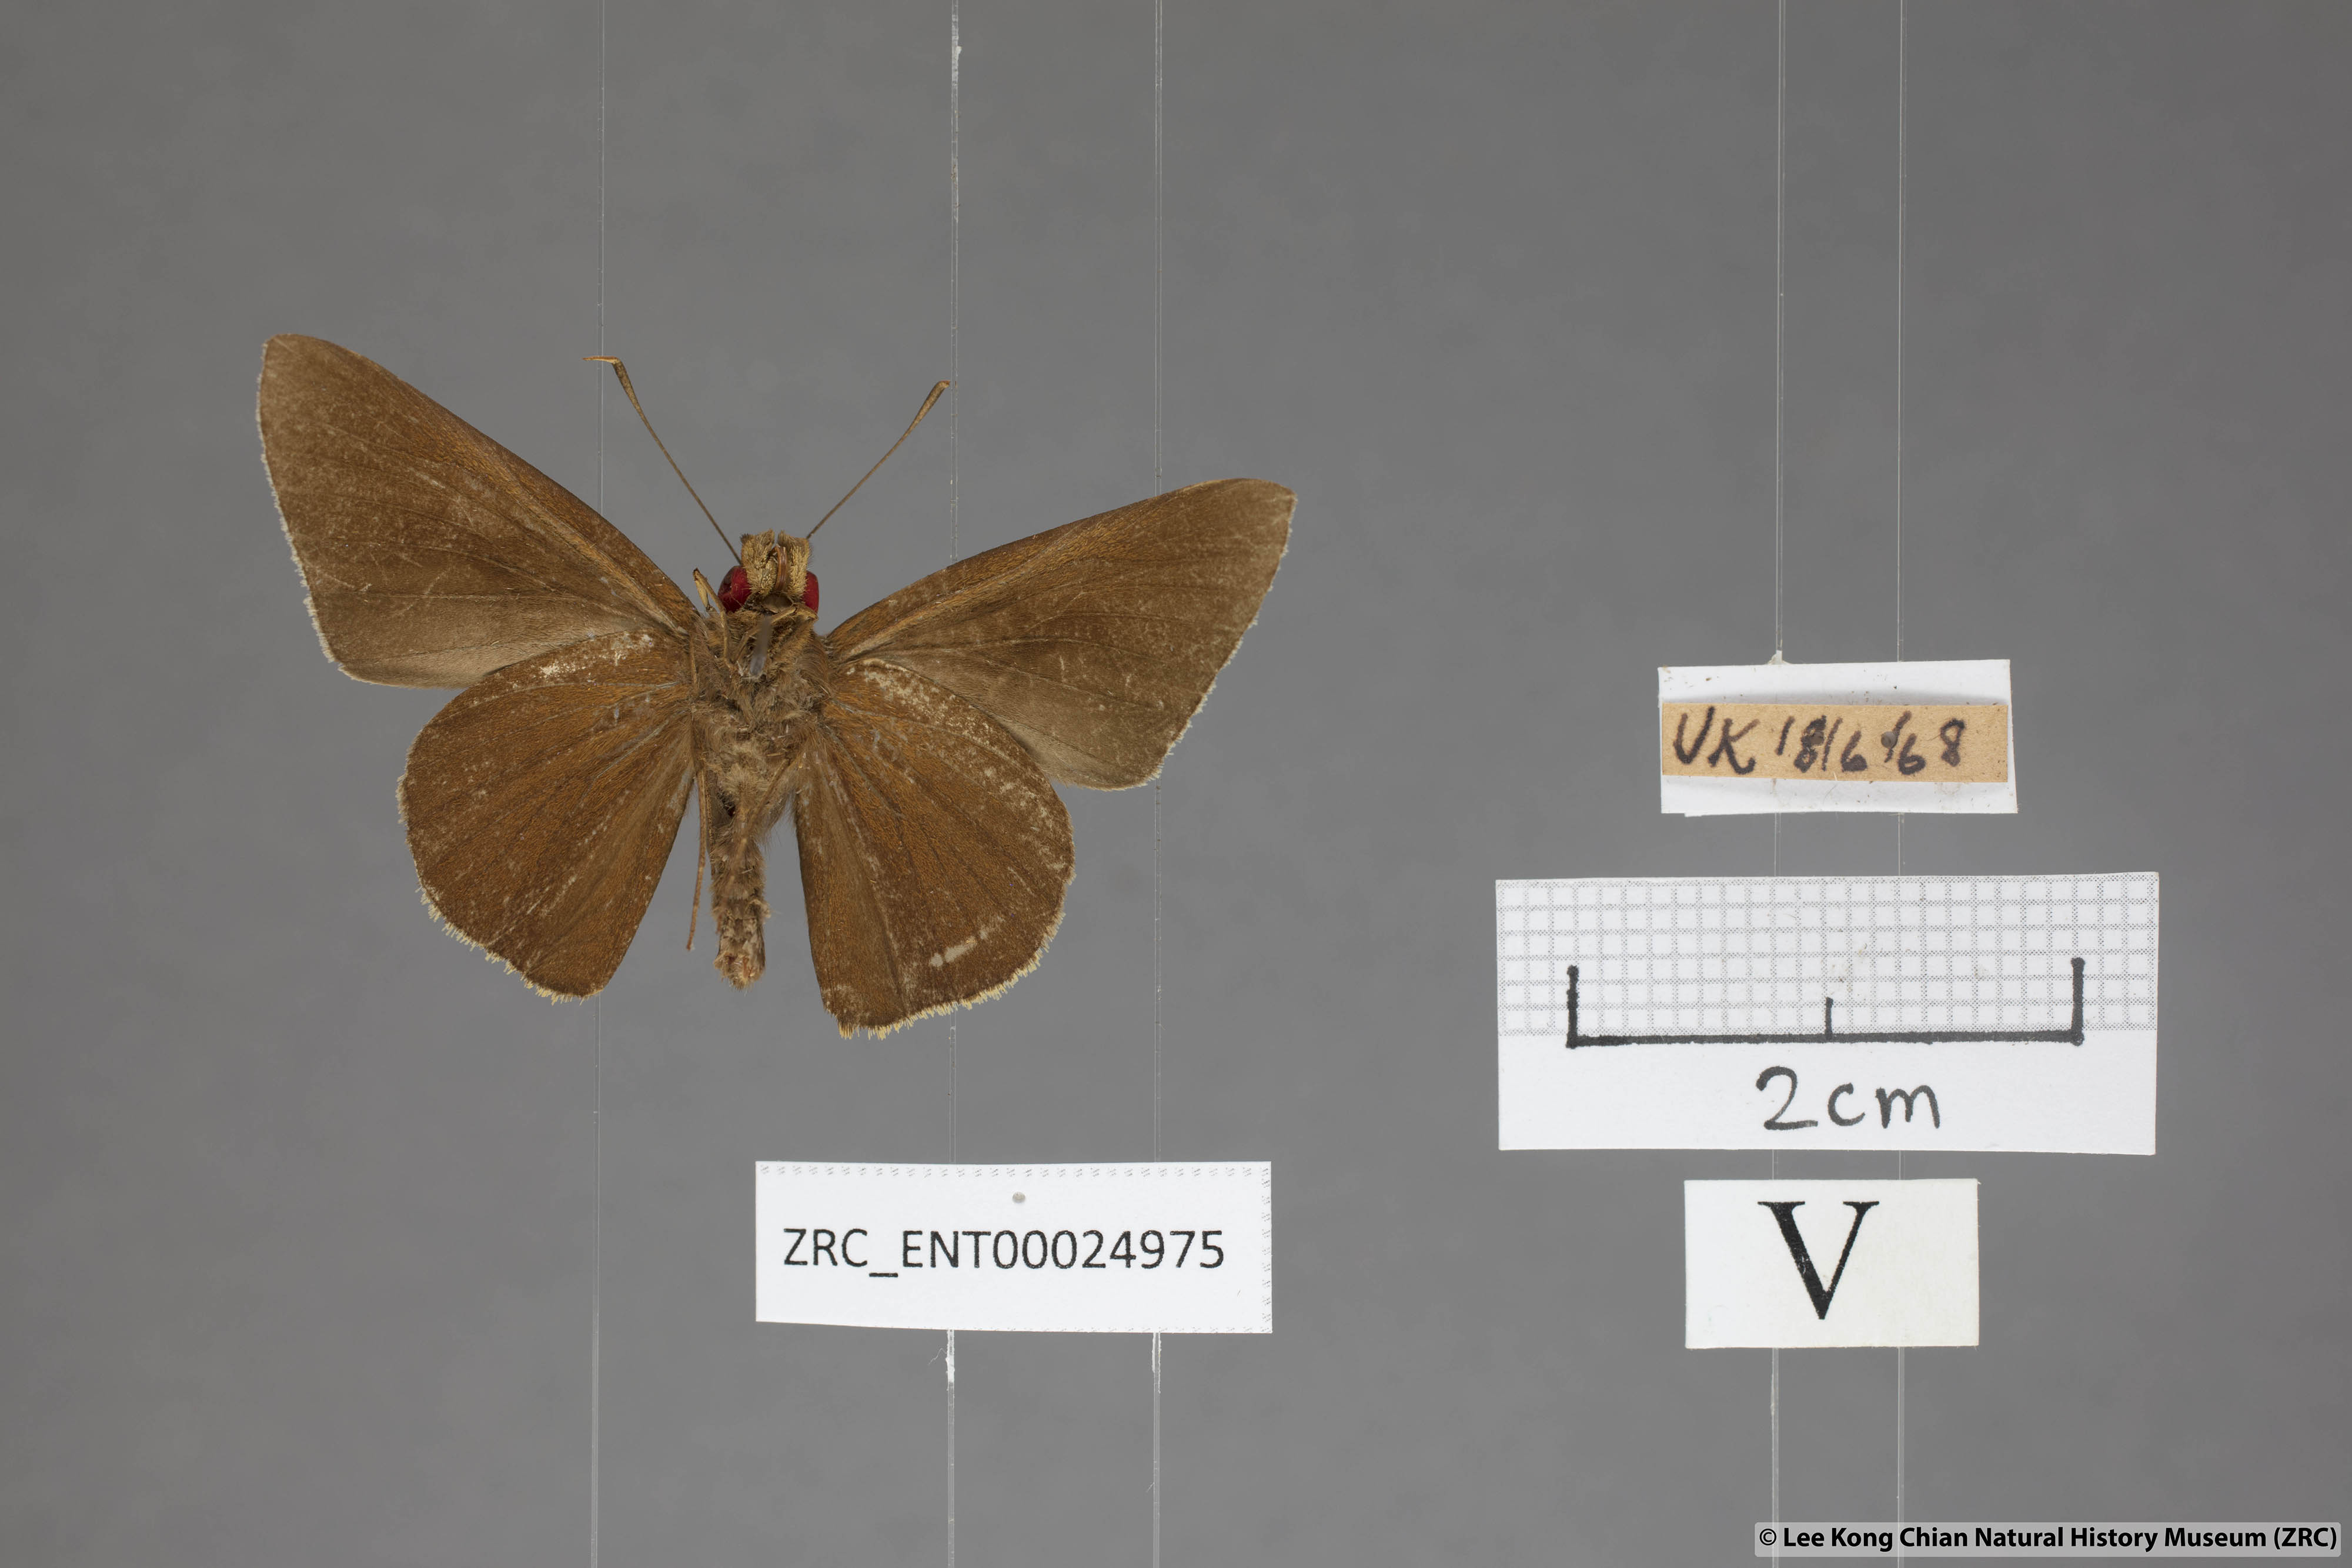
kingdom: Animalia
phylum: Arthropoda
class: Insecta
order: Lepidoptera
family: Hesperiidae
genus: Matapa
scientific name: Matapa druna
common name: Grey-brand redeye
